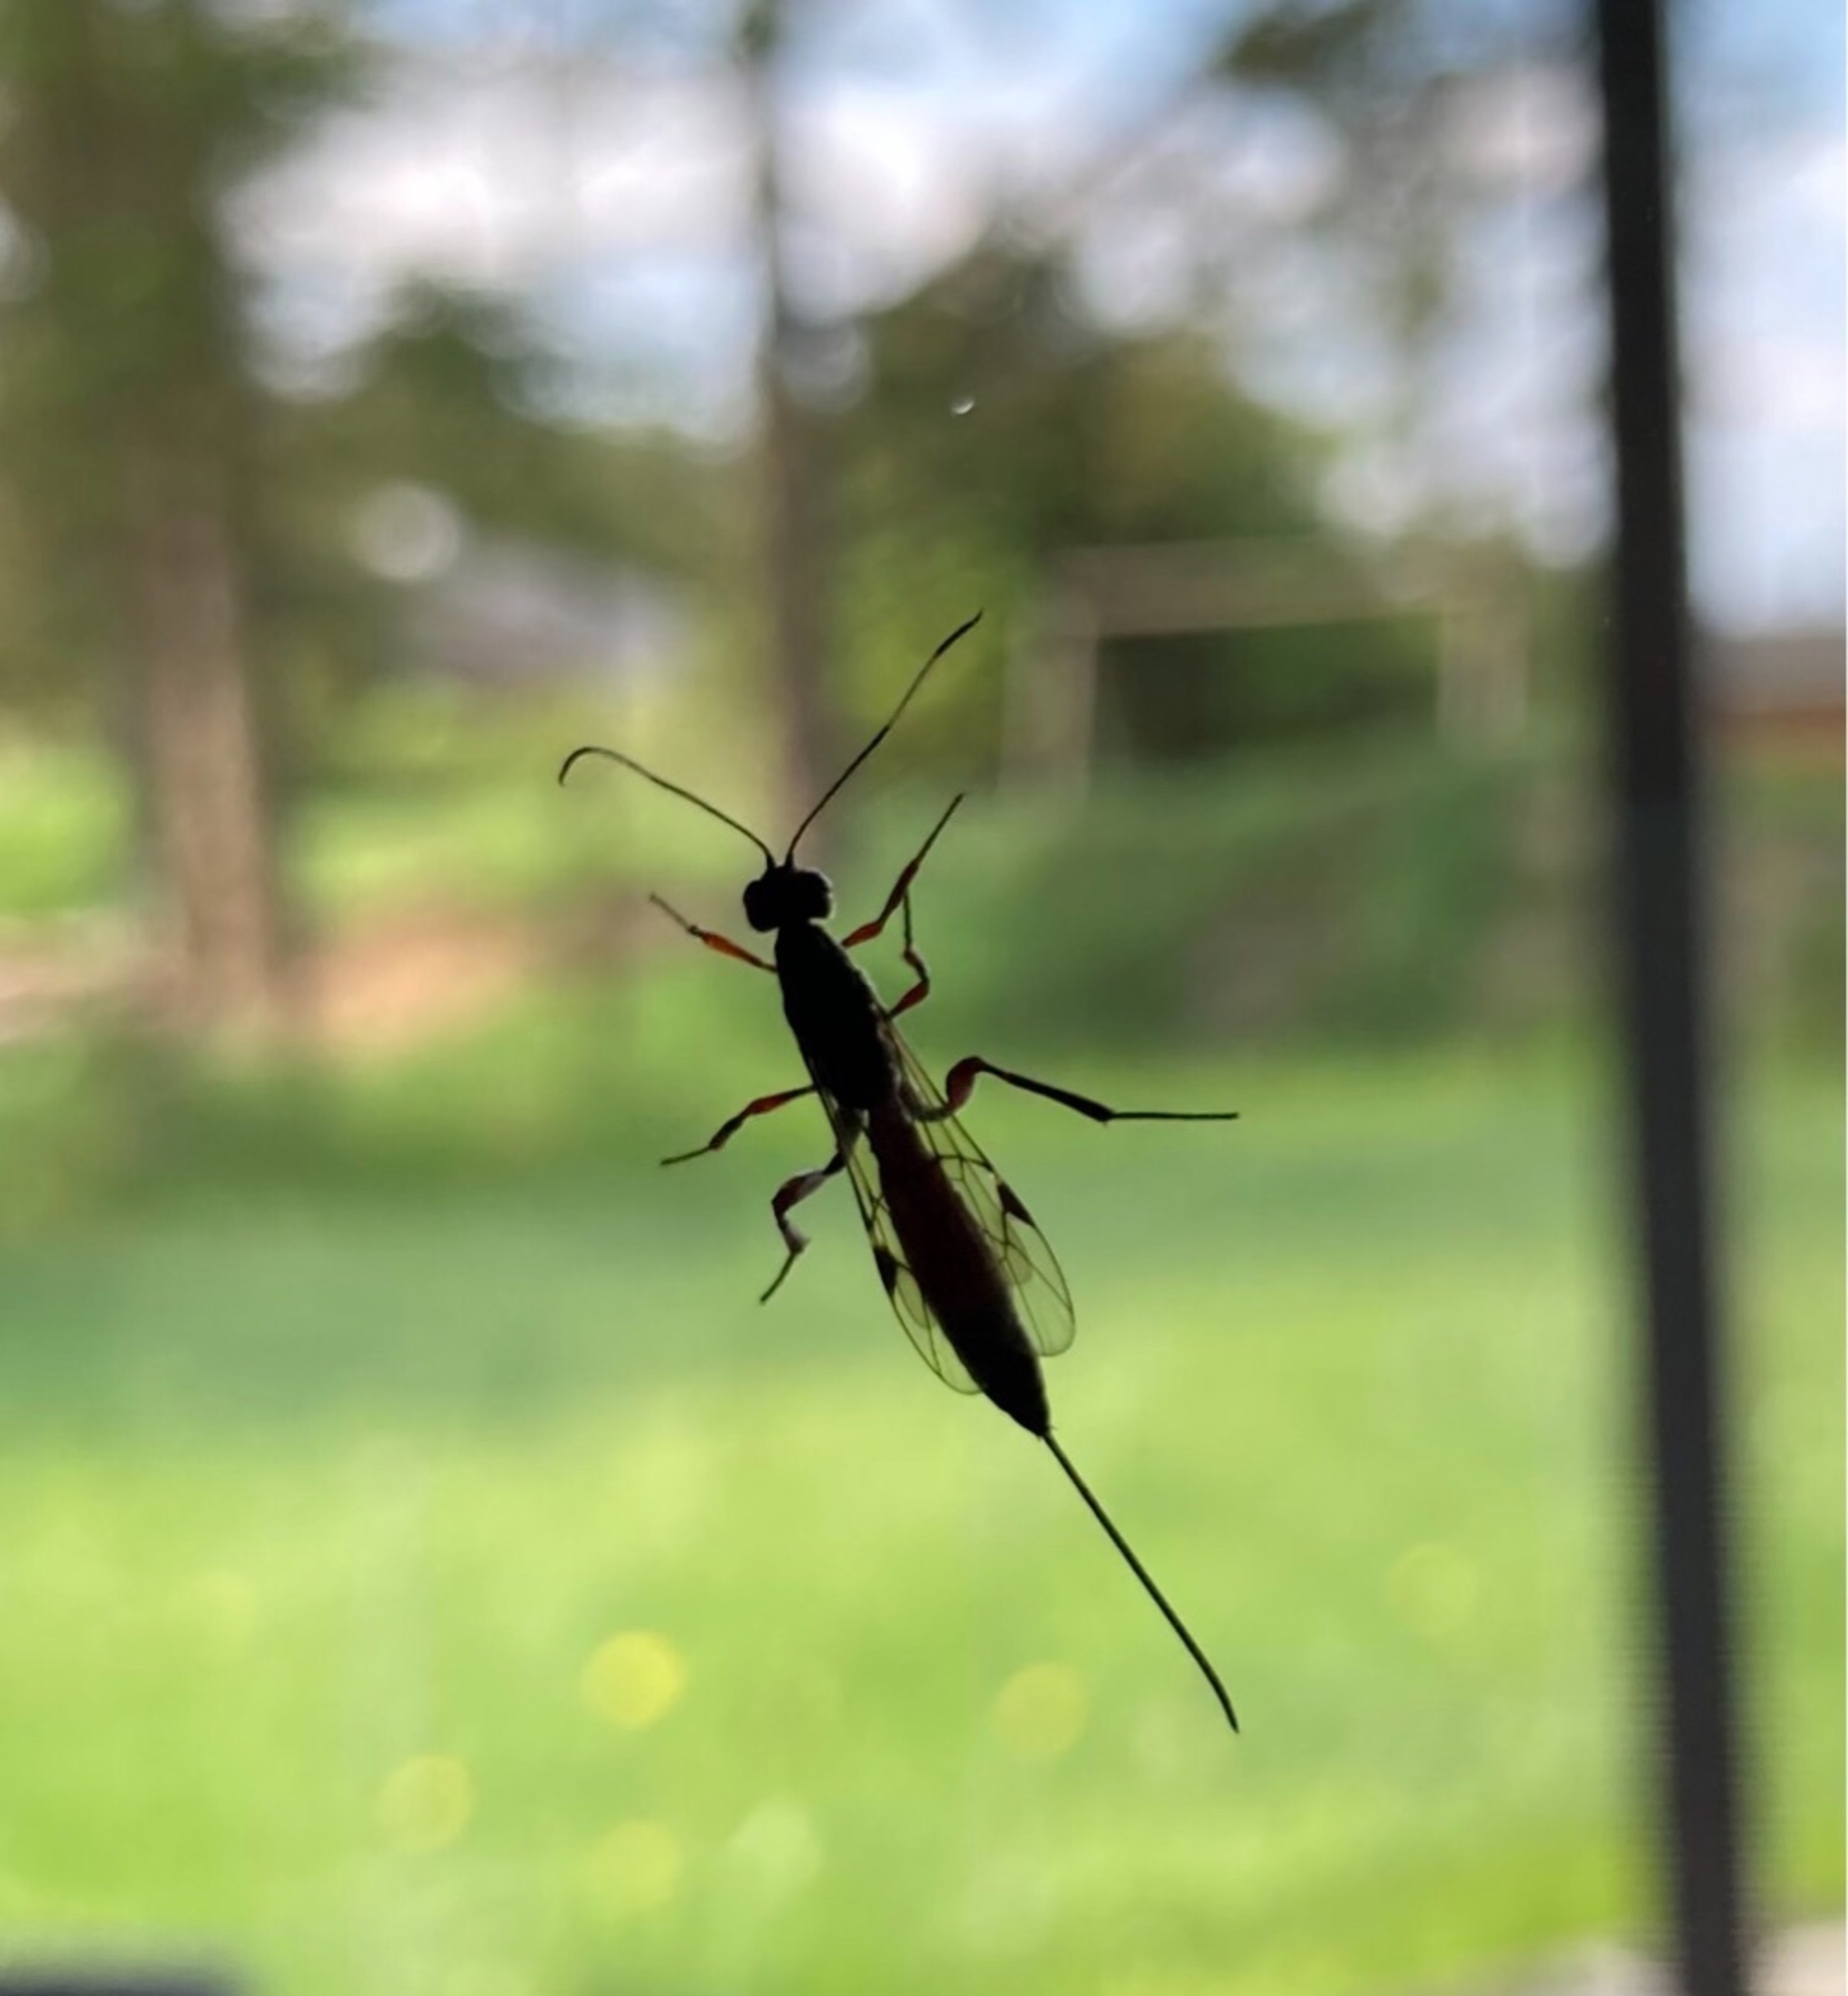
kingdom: Animalia
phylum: Arthropoda
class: Insecta
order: Hymenoptera
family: Ichneumonidae
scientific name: Ichneumonidae
